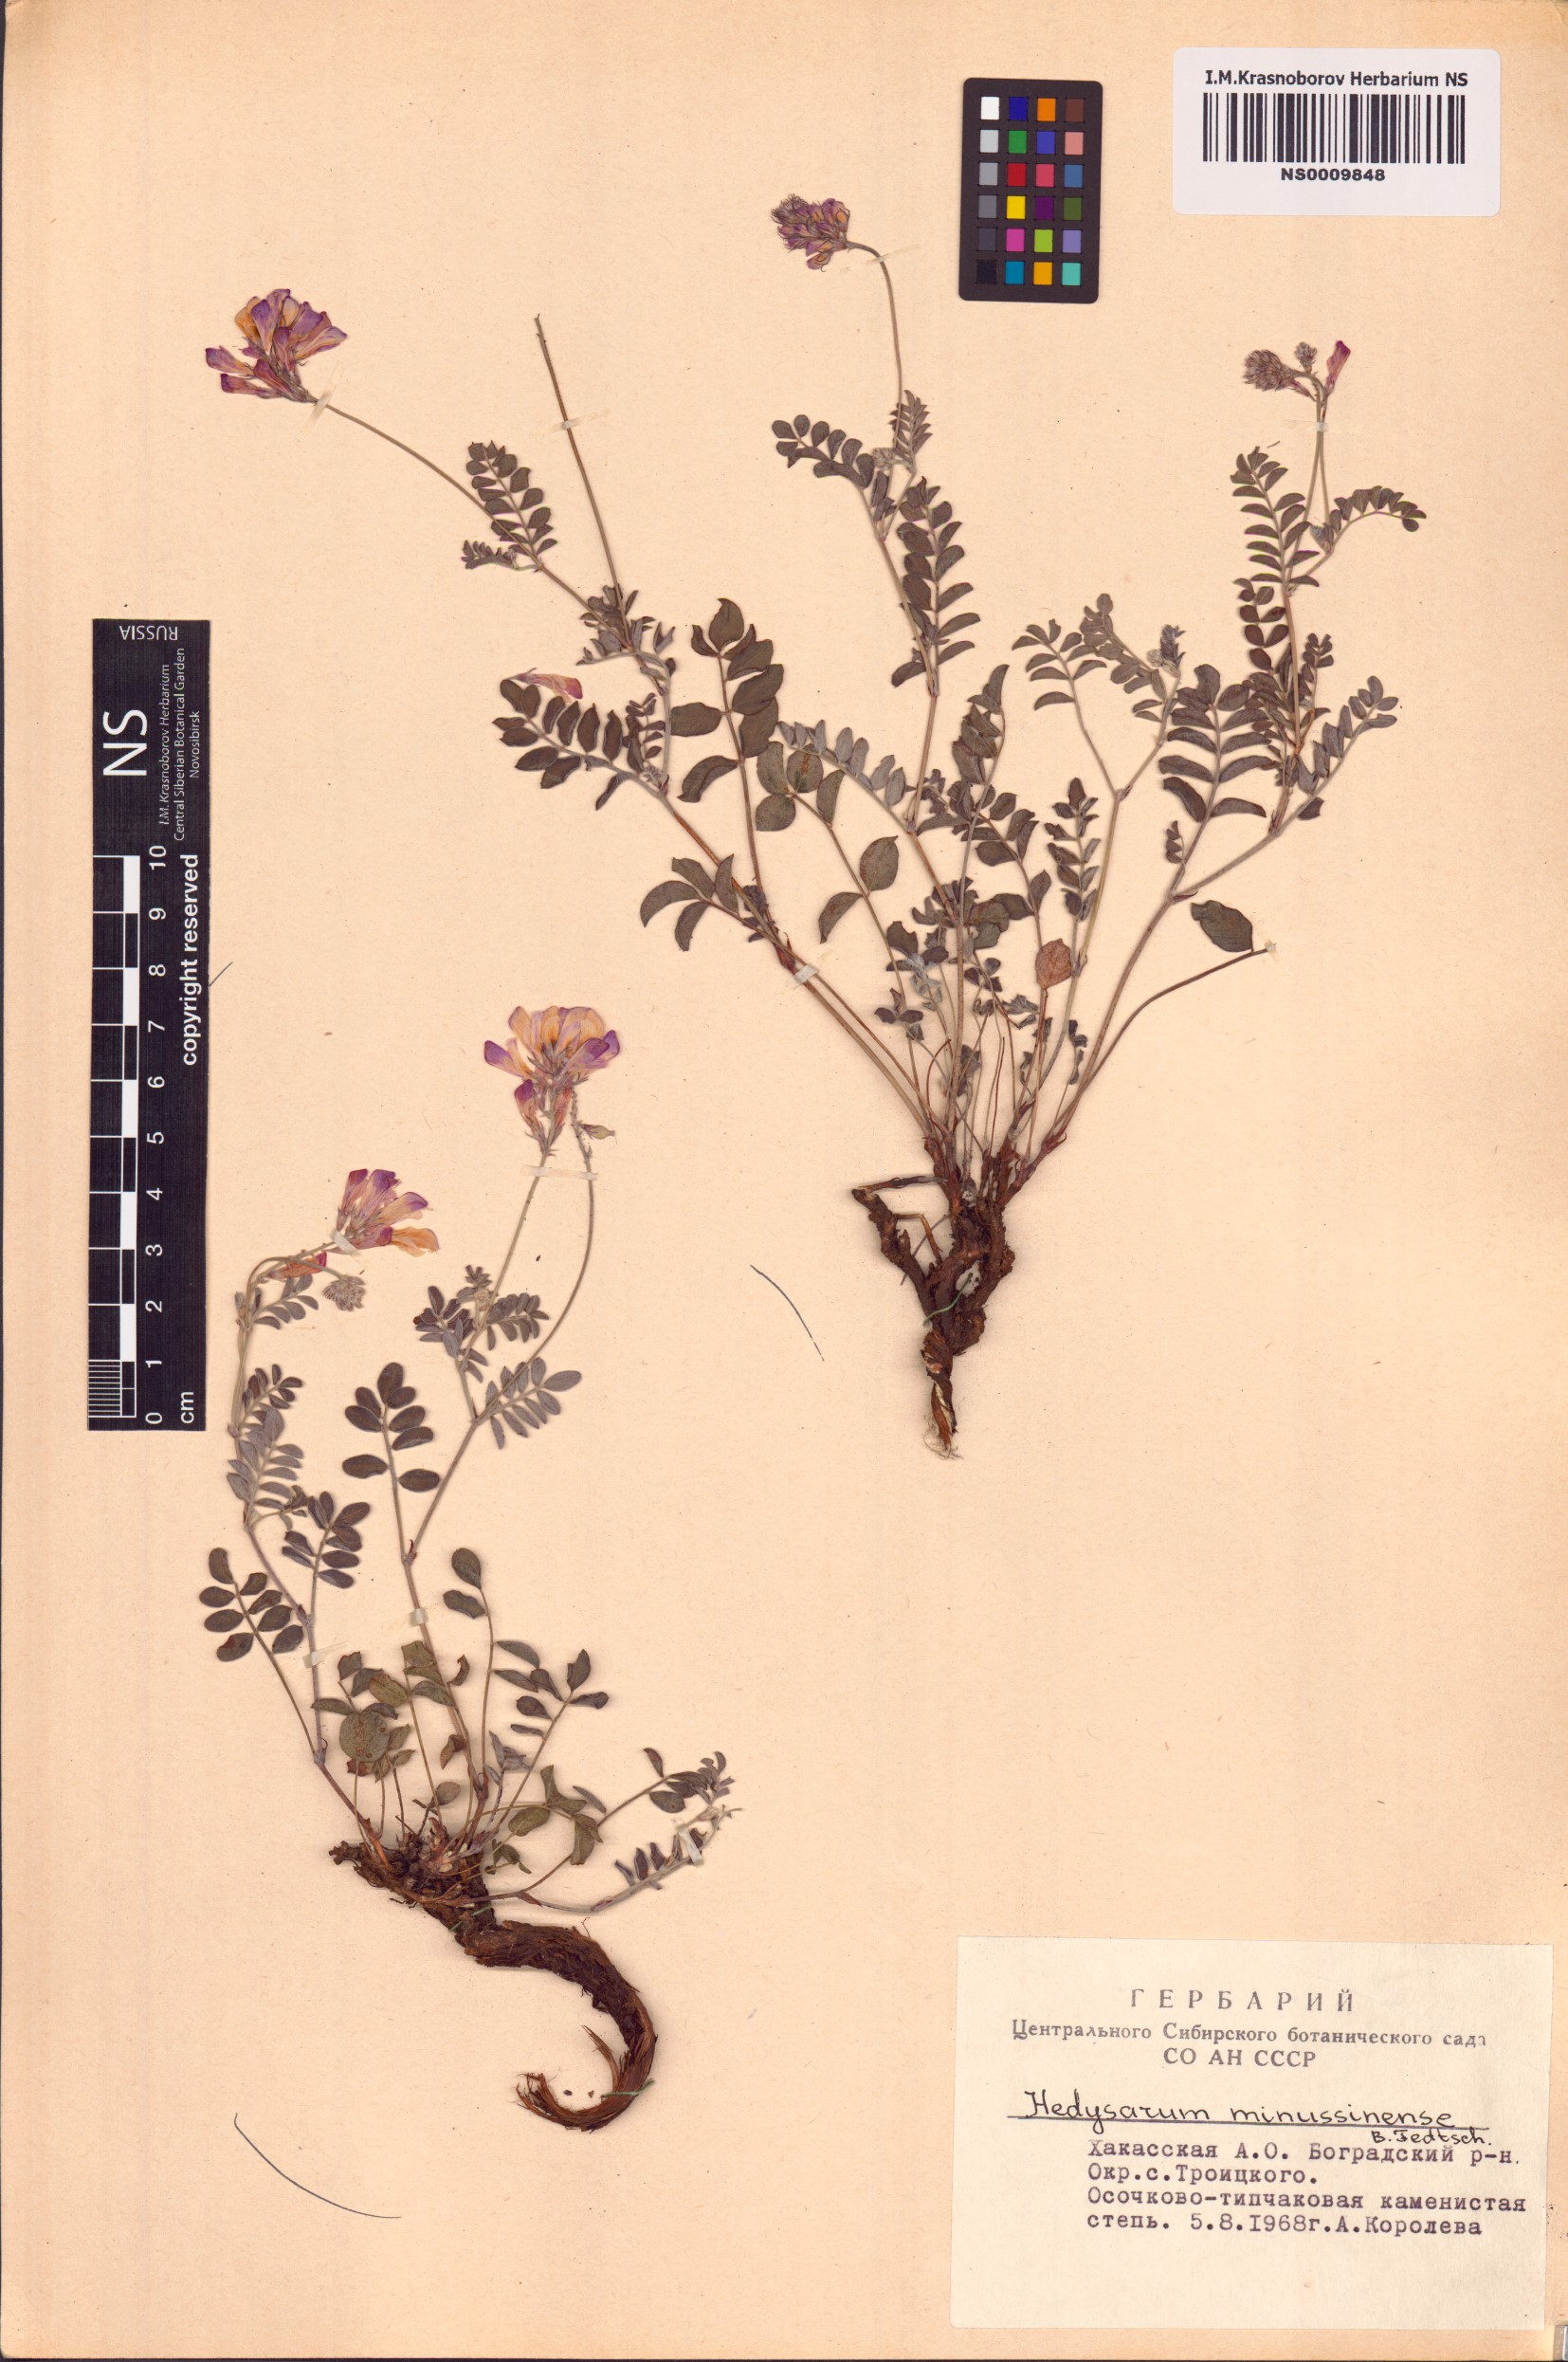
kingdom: Plantae
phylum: Tracheophyta
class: Magnoliopsida
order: Fabales
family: Fabaceae
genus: Hedysarum
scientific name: Hedysarum minussinense
